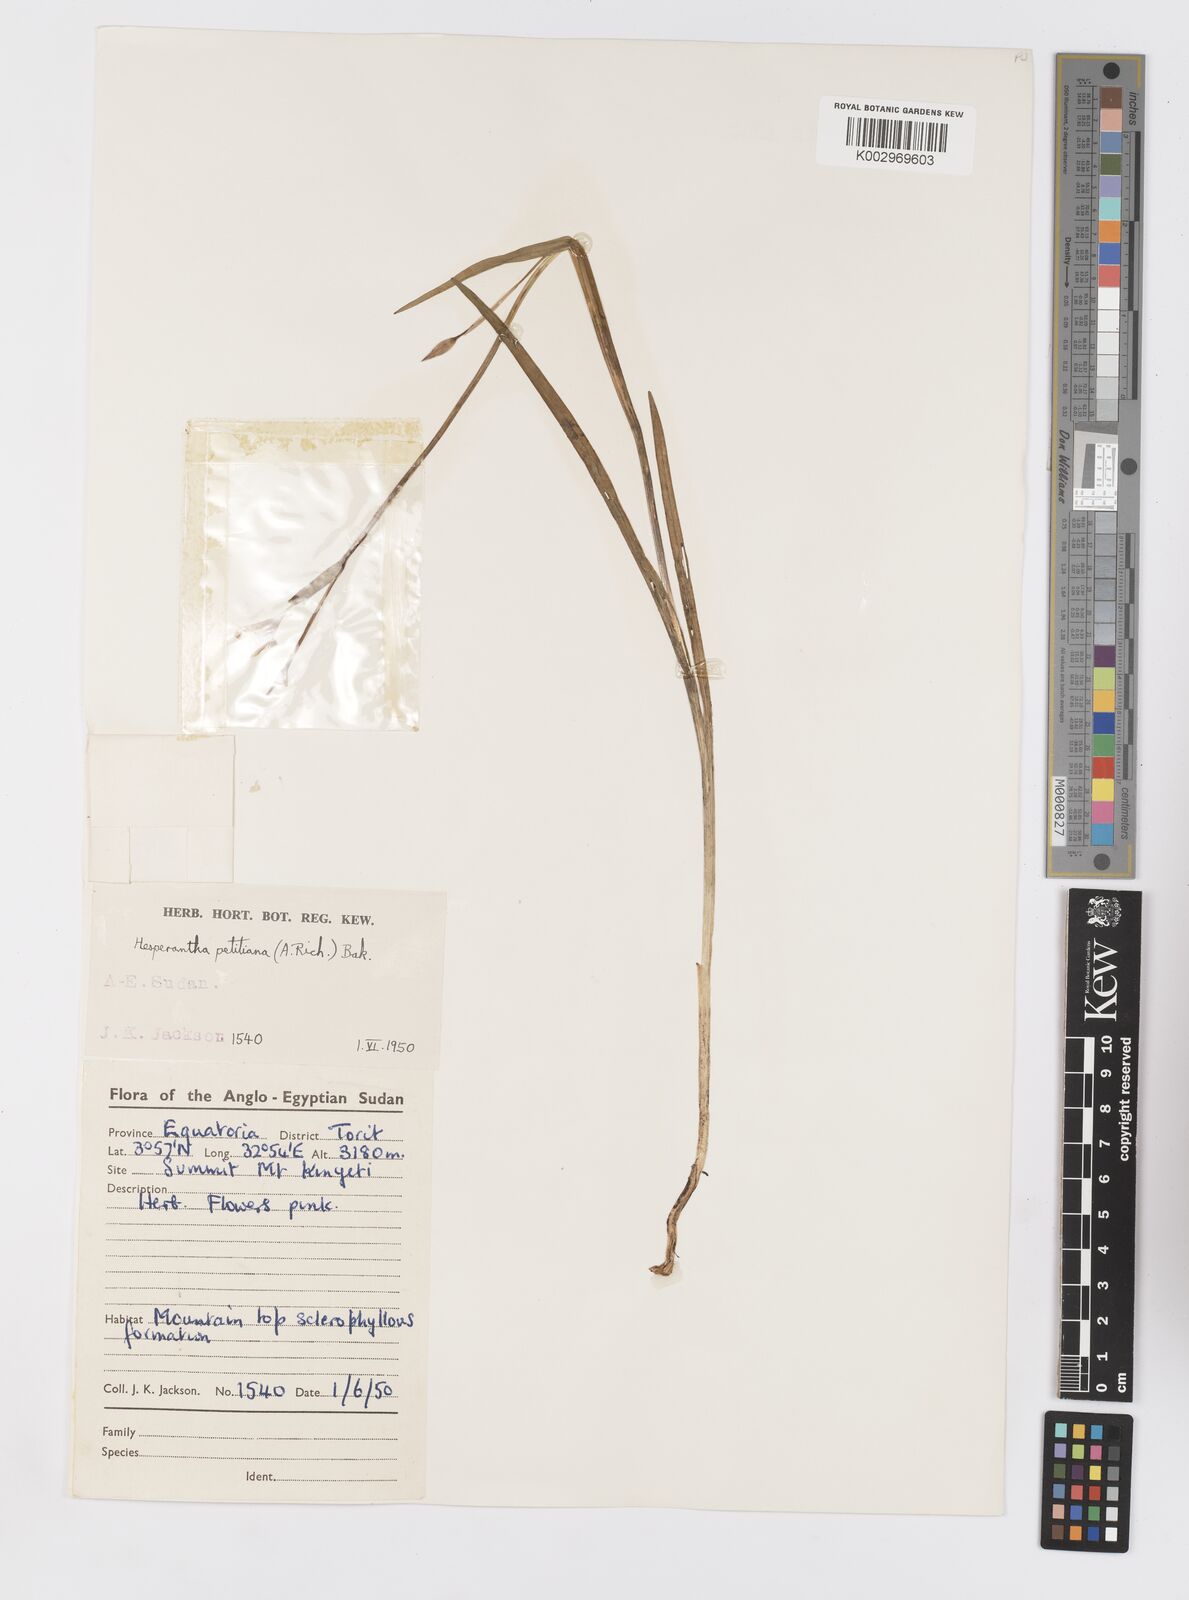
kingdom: Plantae
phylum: Tracheophyta
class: Liliopsida
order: Asparagales
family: Iridaceae
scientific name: Iridaceae
